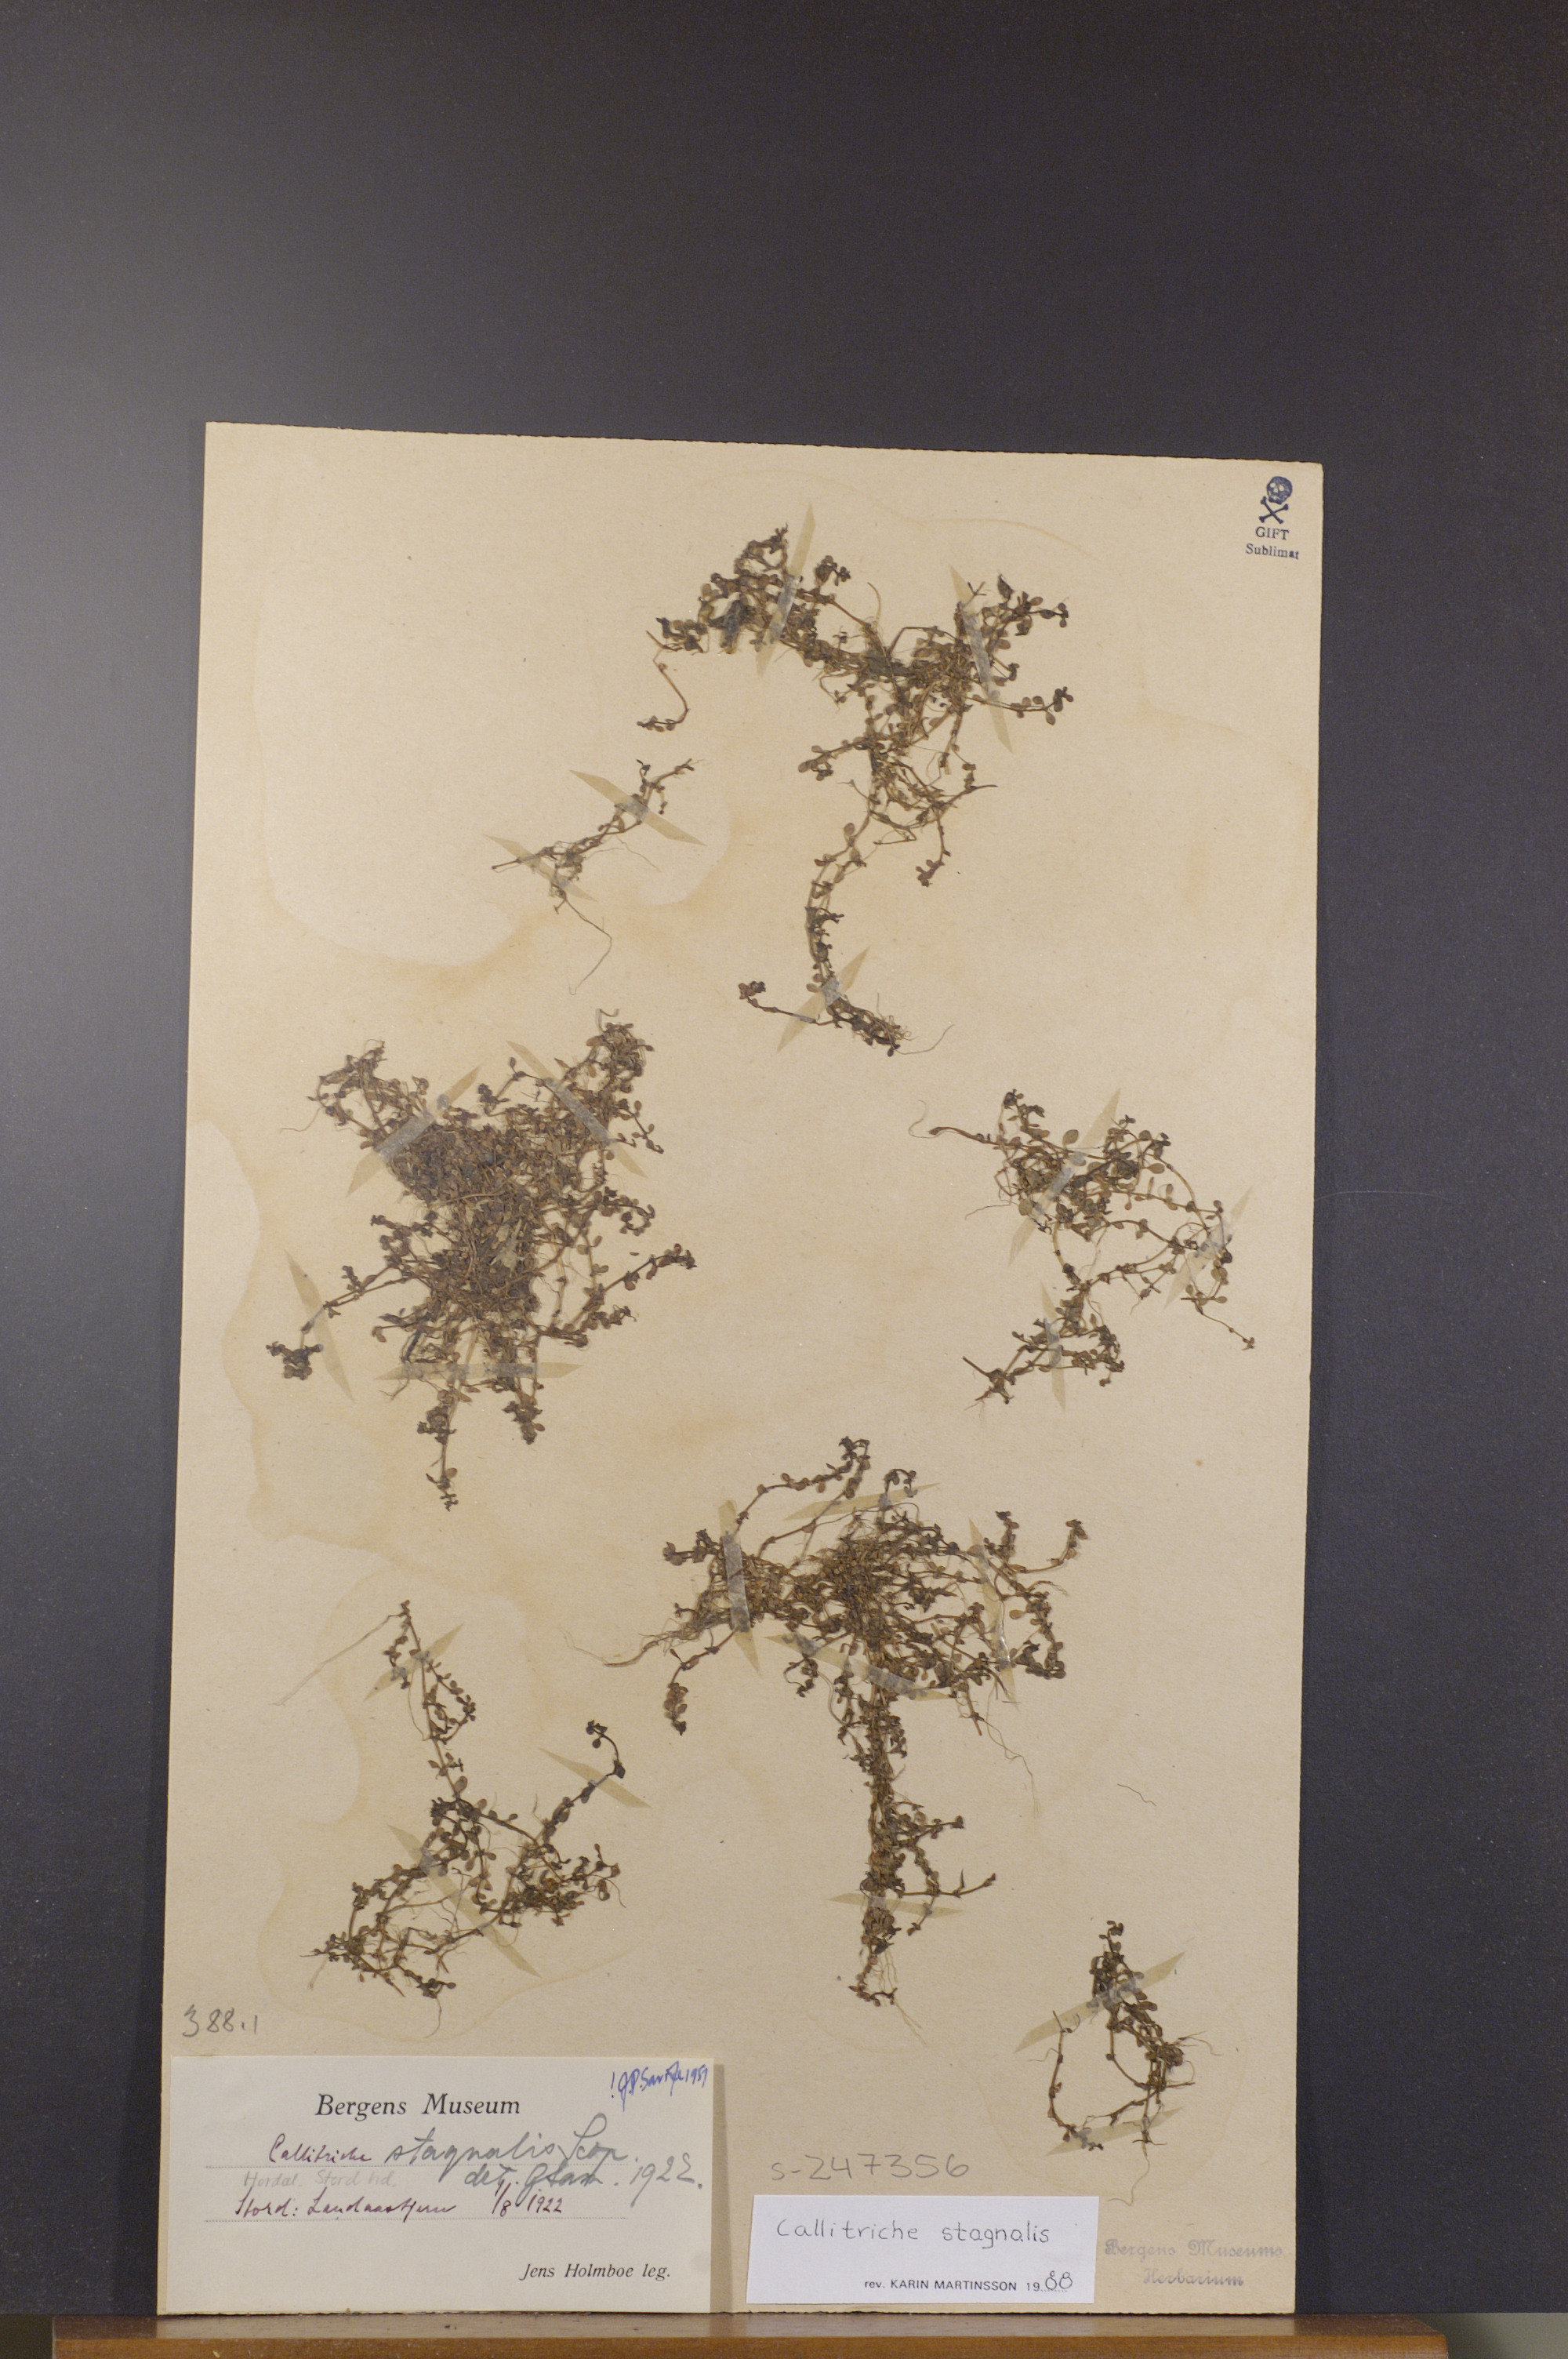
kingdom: Plantae
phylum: Tracheophyta
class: Magnoliopsida
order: Lamiales
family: Plantaginaceae
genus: Callitriche
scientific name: Callitriche stagnalis
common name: Common water-starwort
